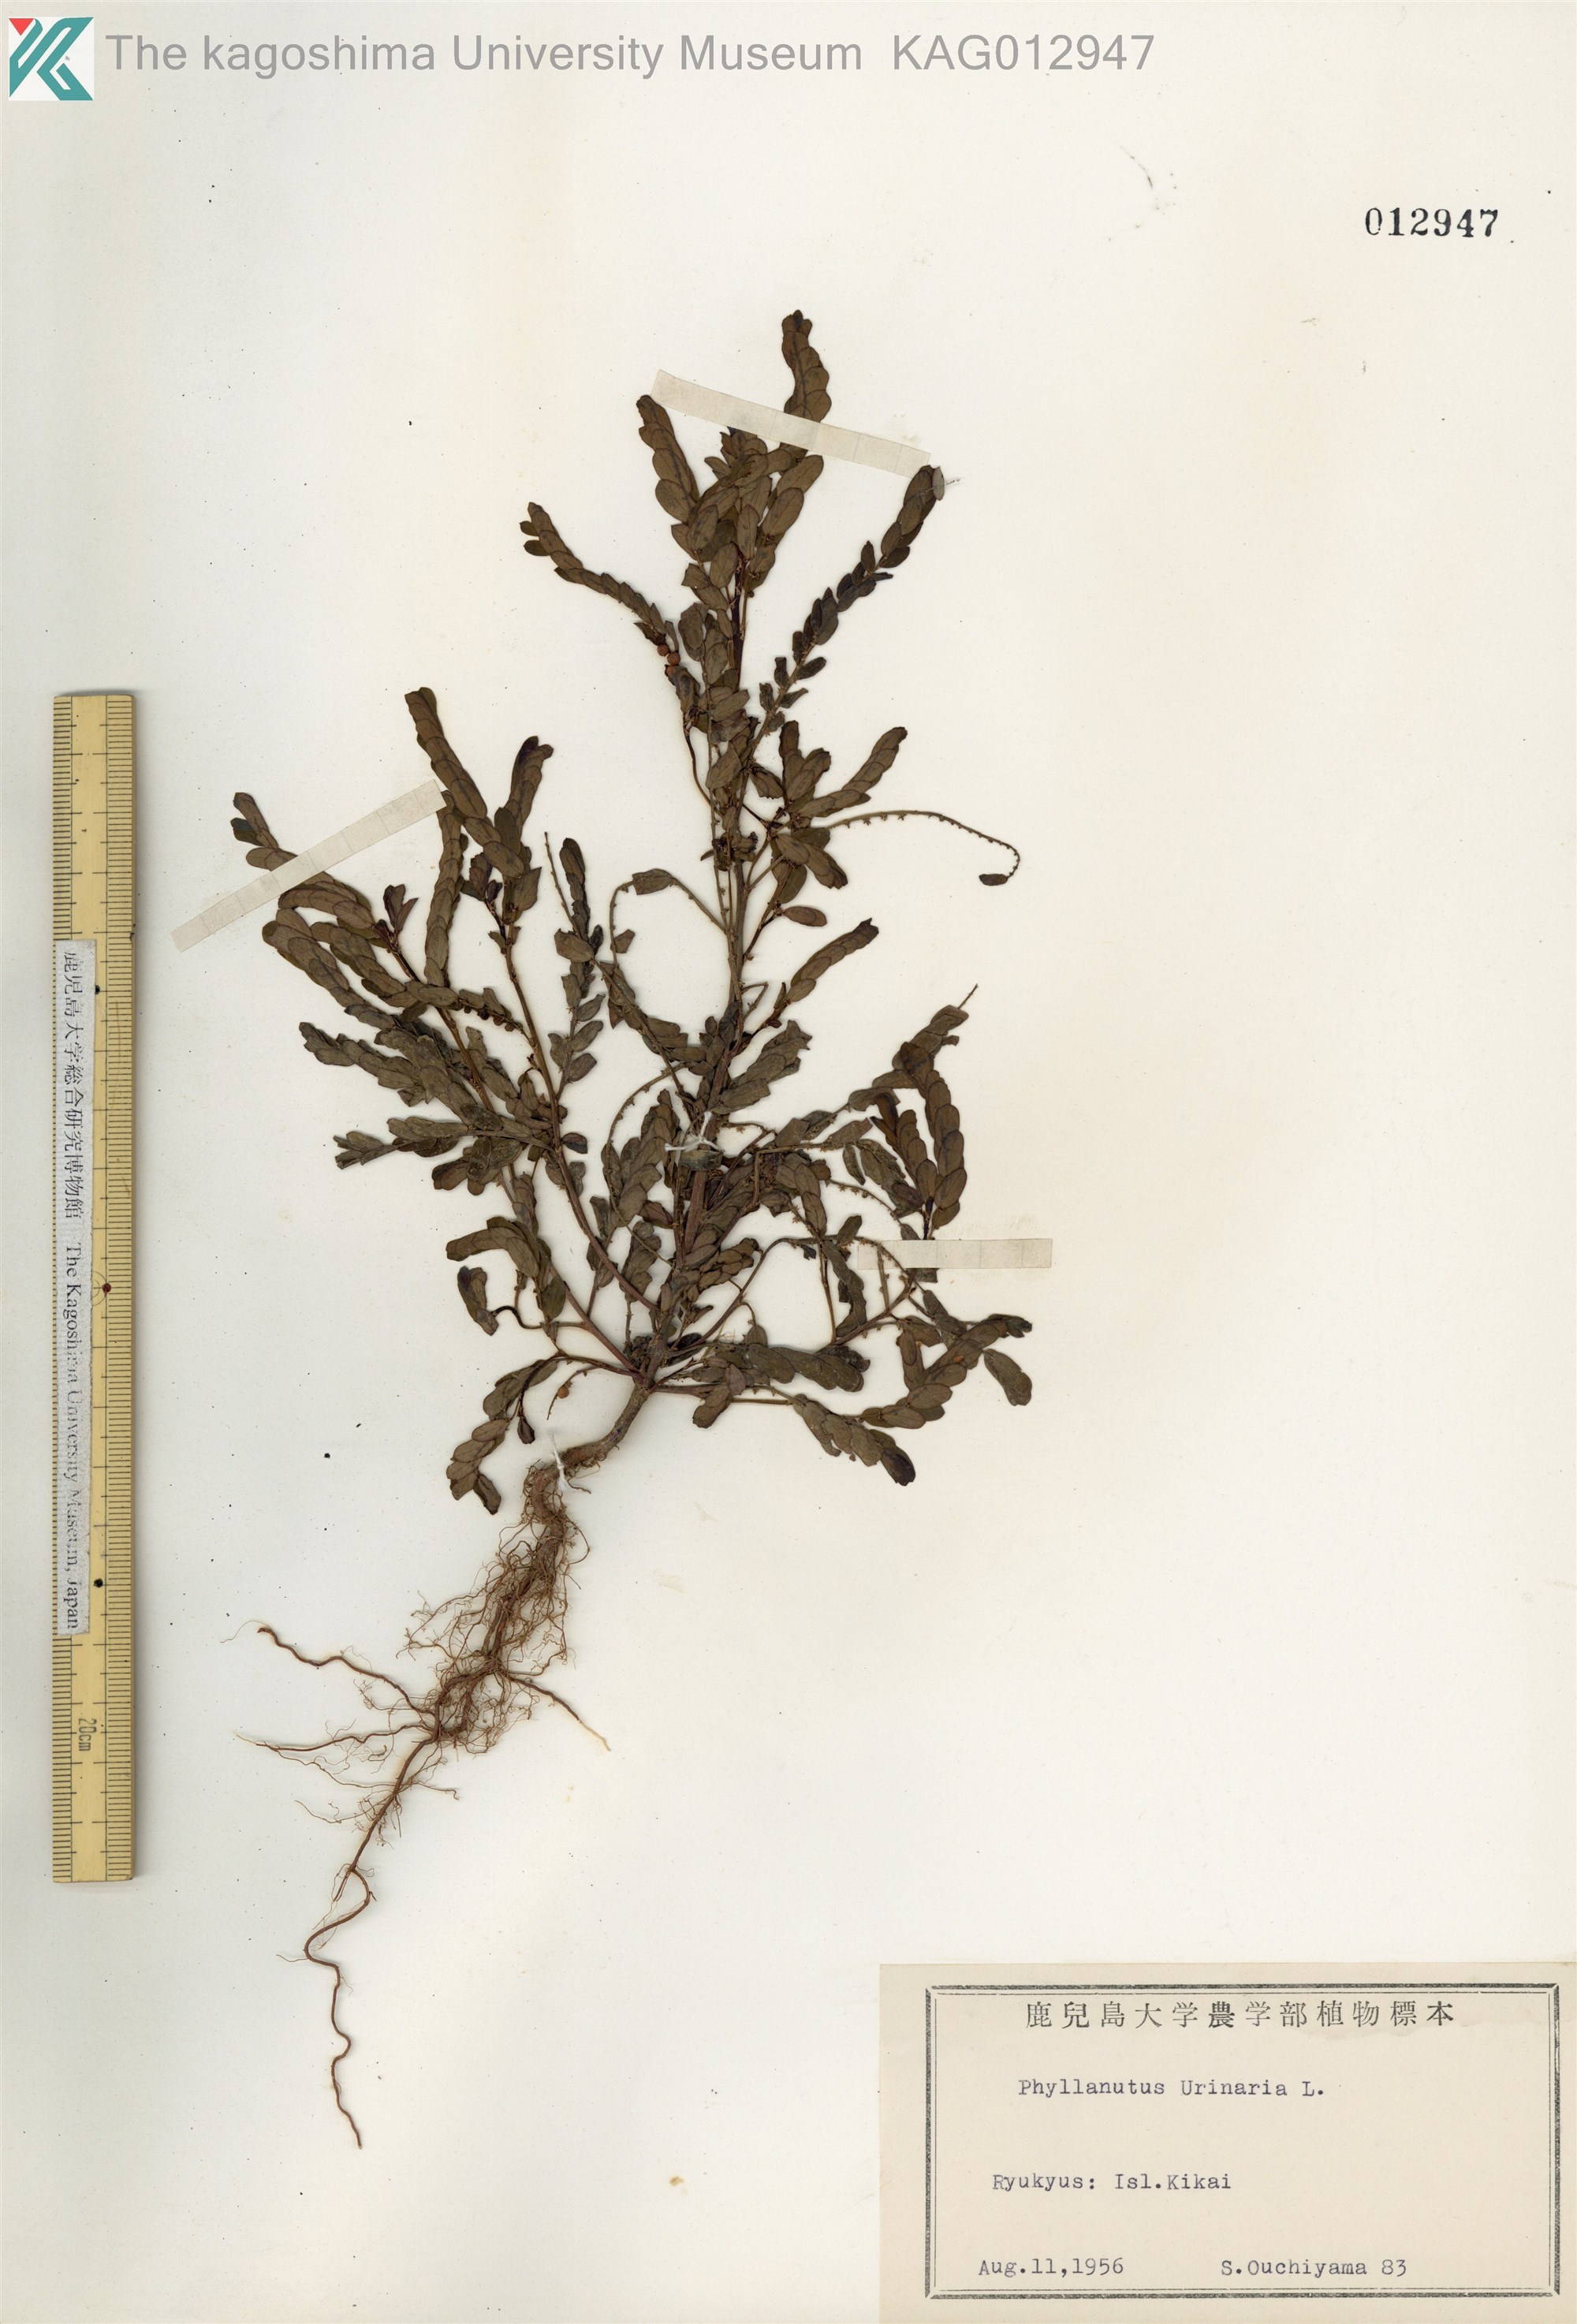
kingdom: Plantae
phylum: Tracheophyta
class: Magnoliopsida
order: Malpighiales
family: Phyllanthaceae
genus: Phyllanthus
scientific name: Phyllanthus urinaria
